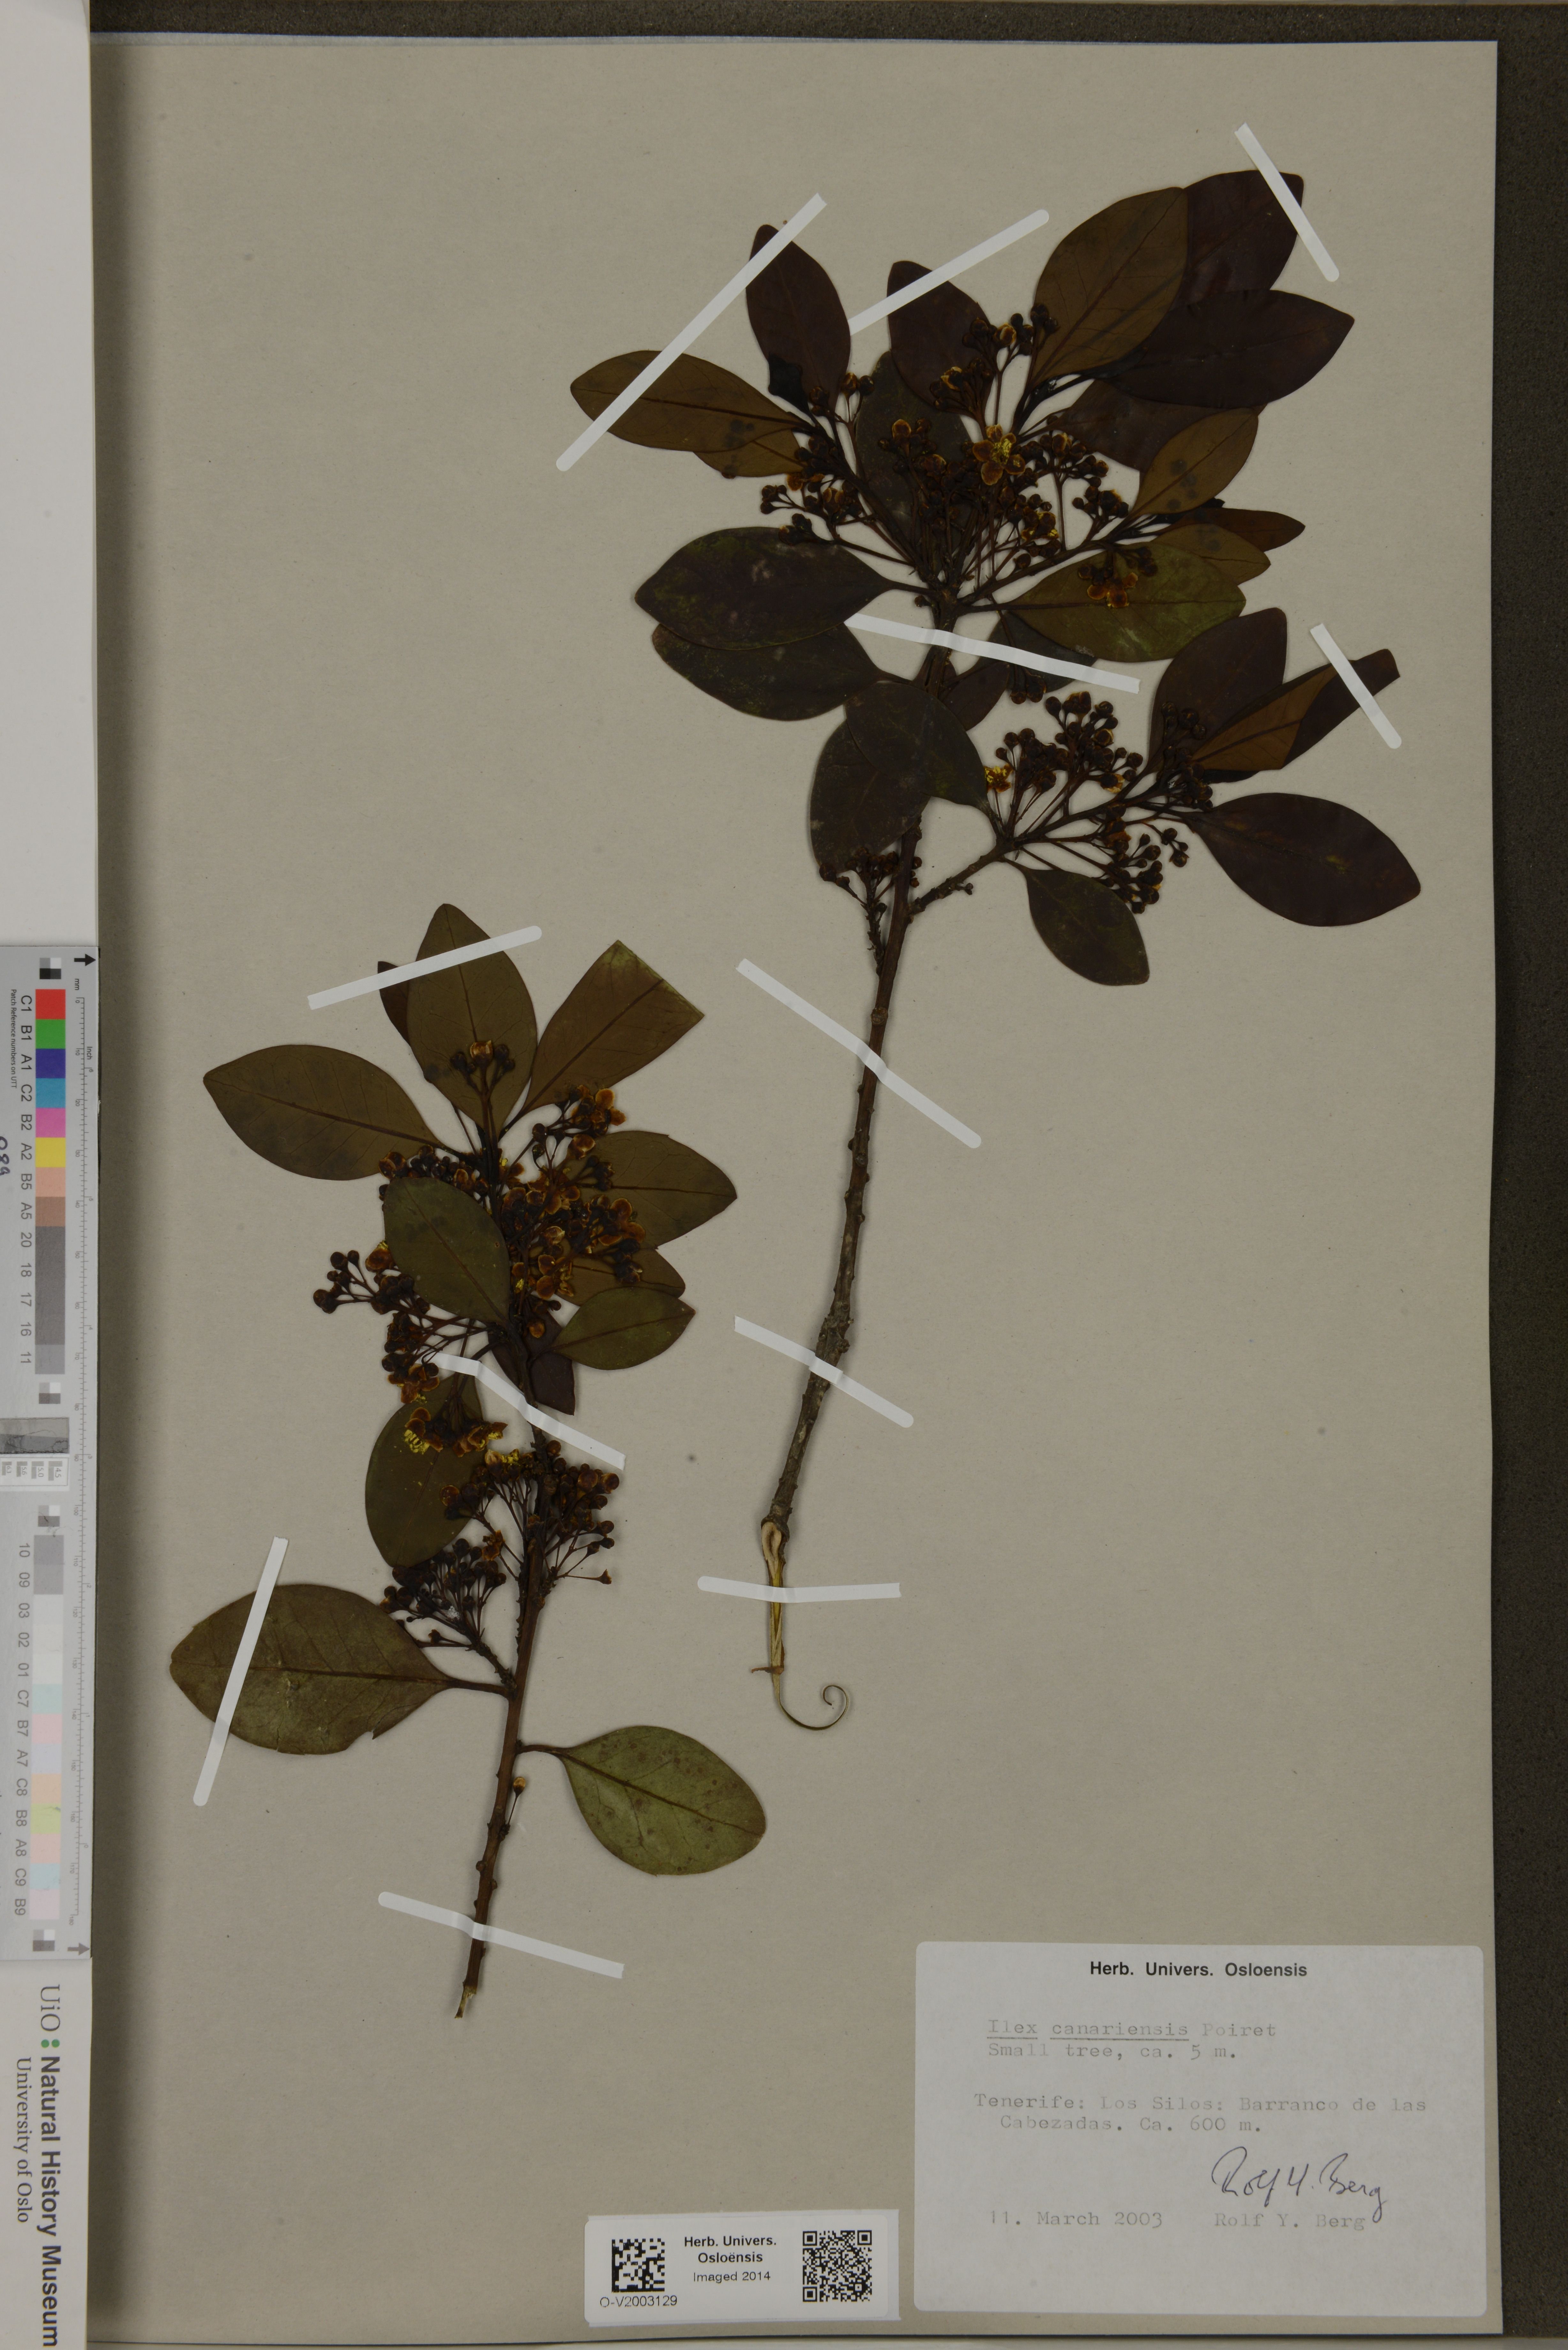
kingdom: Plantae
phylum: Tracheophyta
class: Magnoliopsida
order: Aquifoliales
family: Aquifoliaceae
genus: Ilex
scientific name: Ilex canariensis
